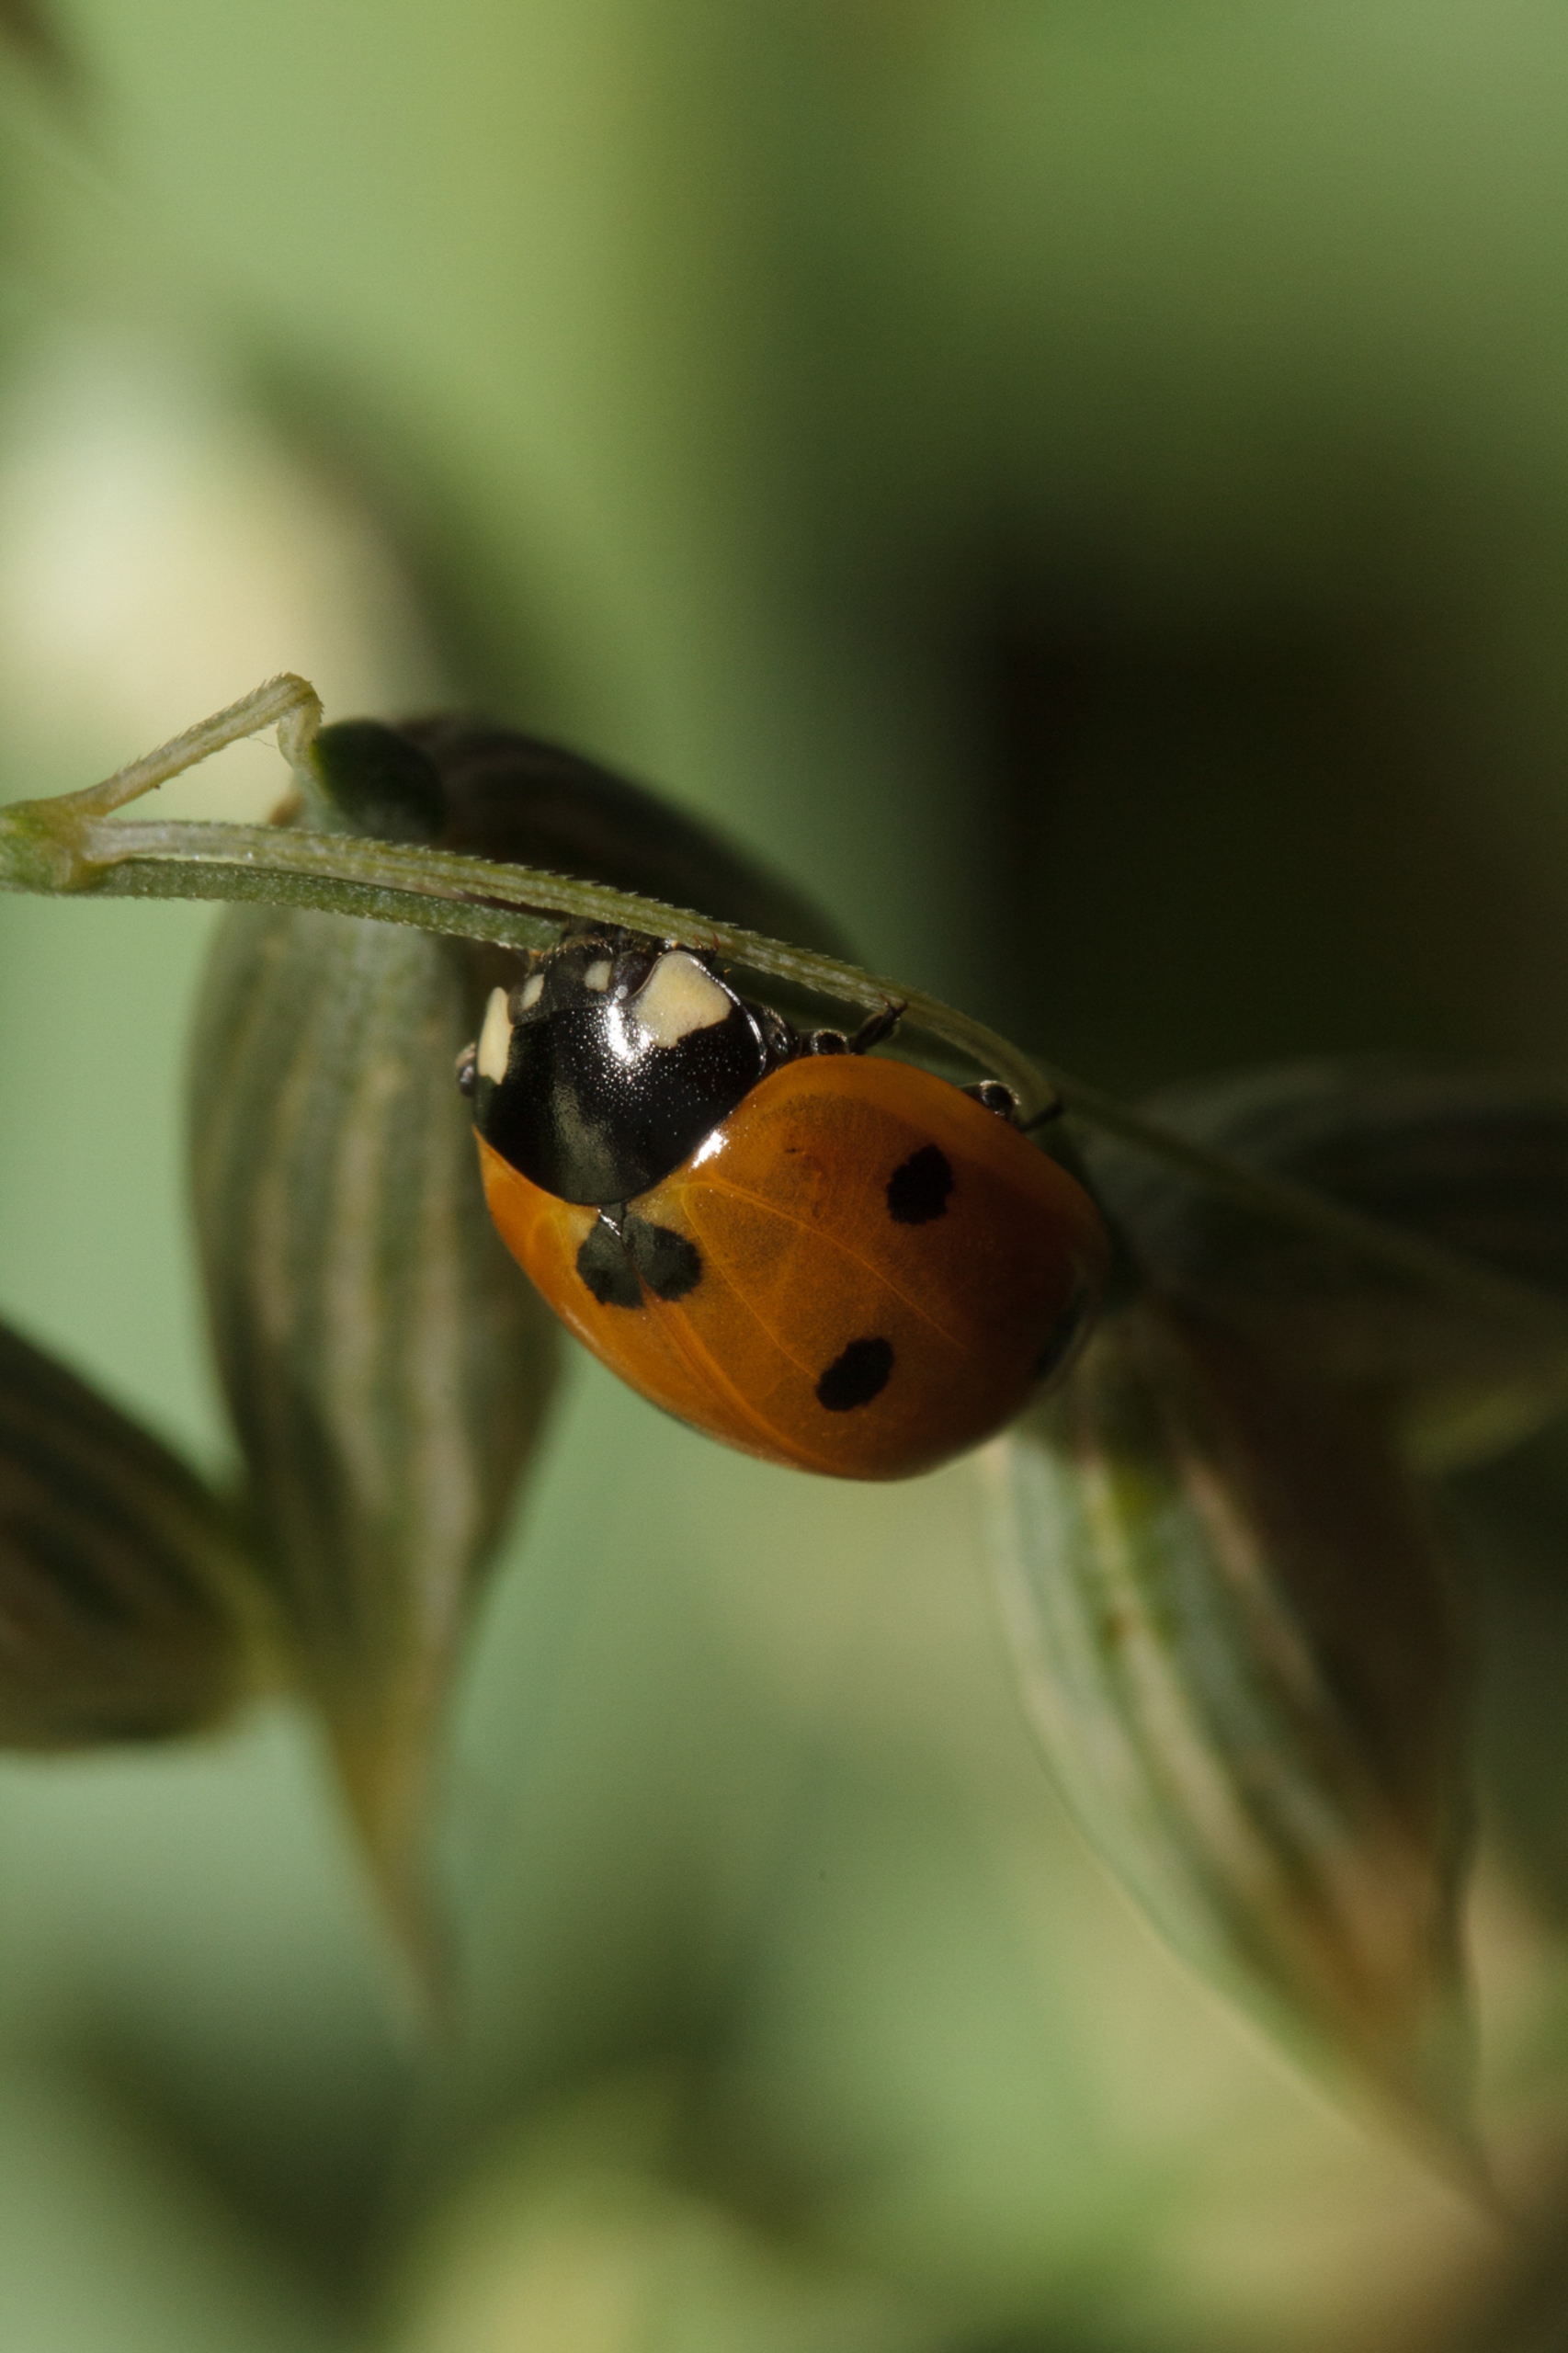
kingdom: Animalia
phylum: Arthropoda
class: Insecta
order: Coleoptera
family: Coccinellidae
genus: Coccinella
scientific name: Coccinella septempunctata
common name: Syvplettet mariehøne
